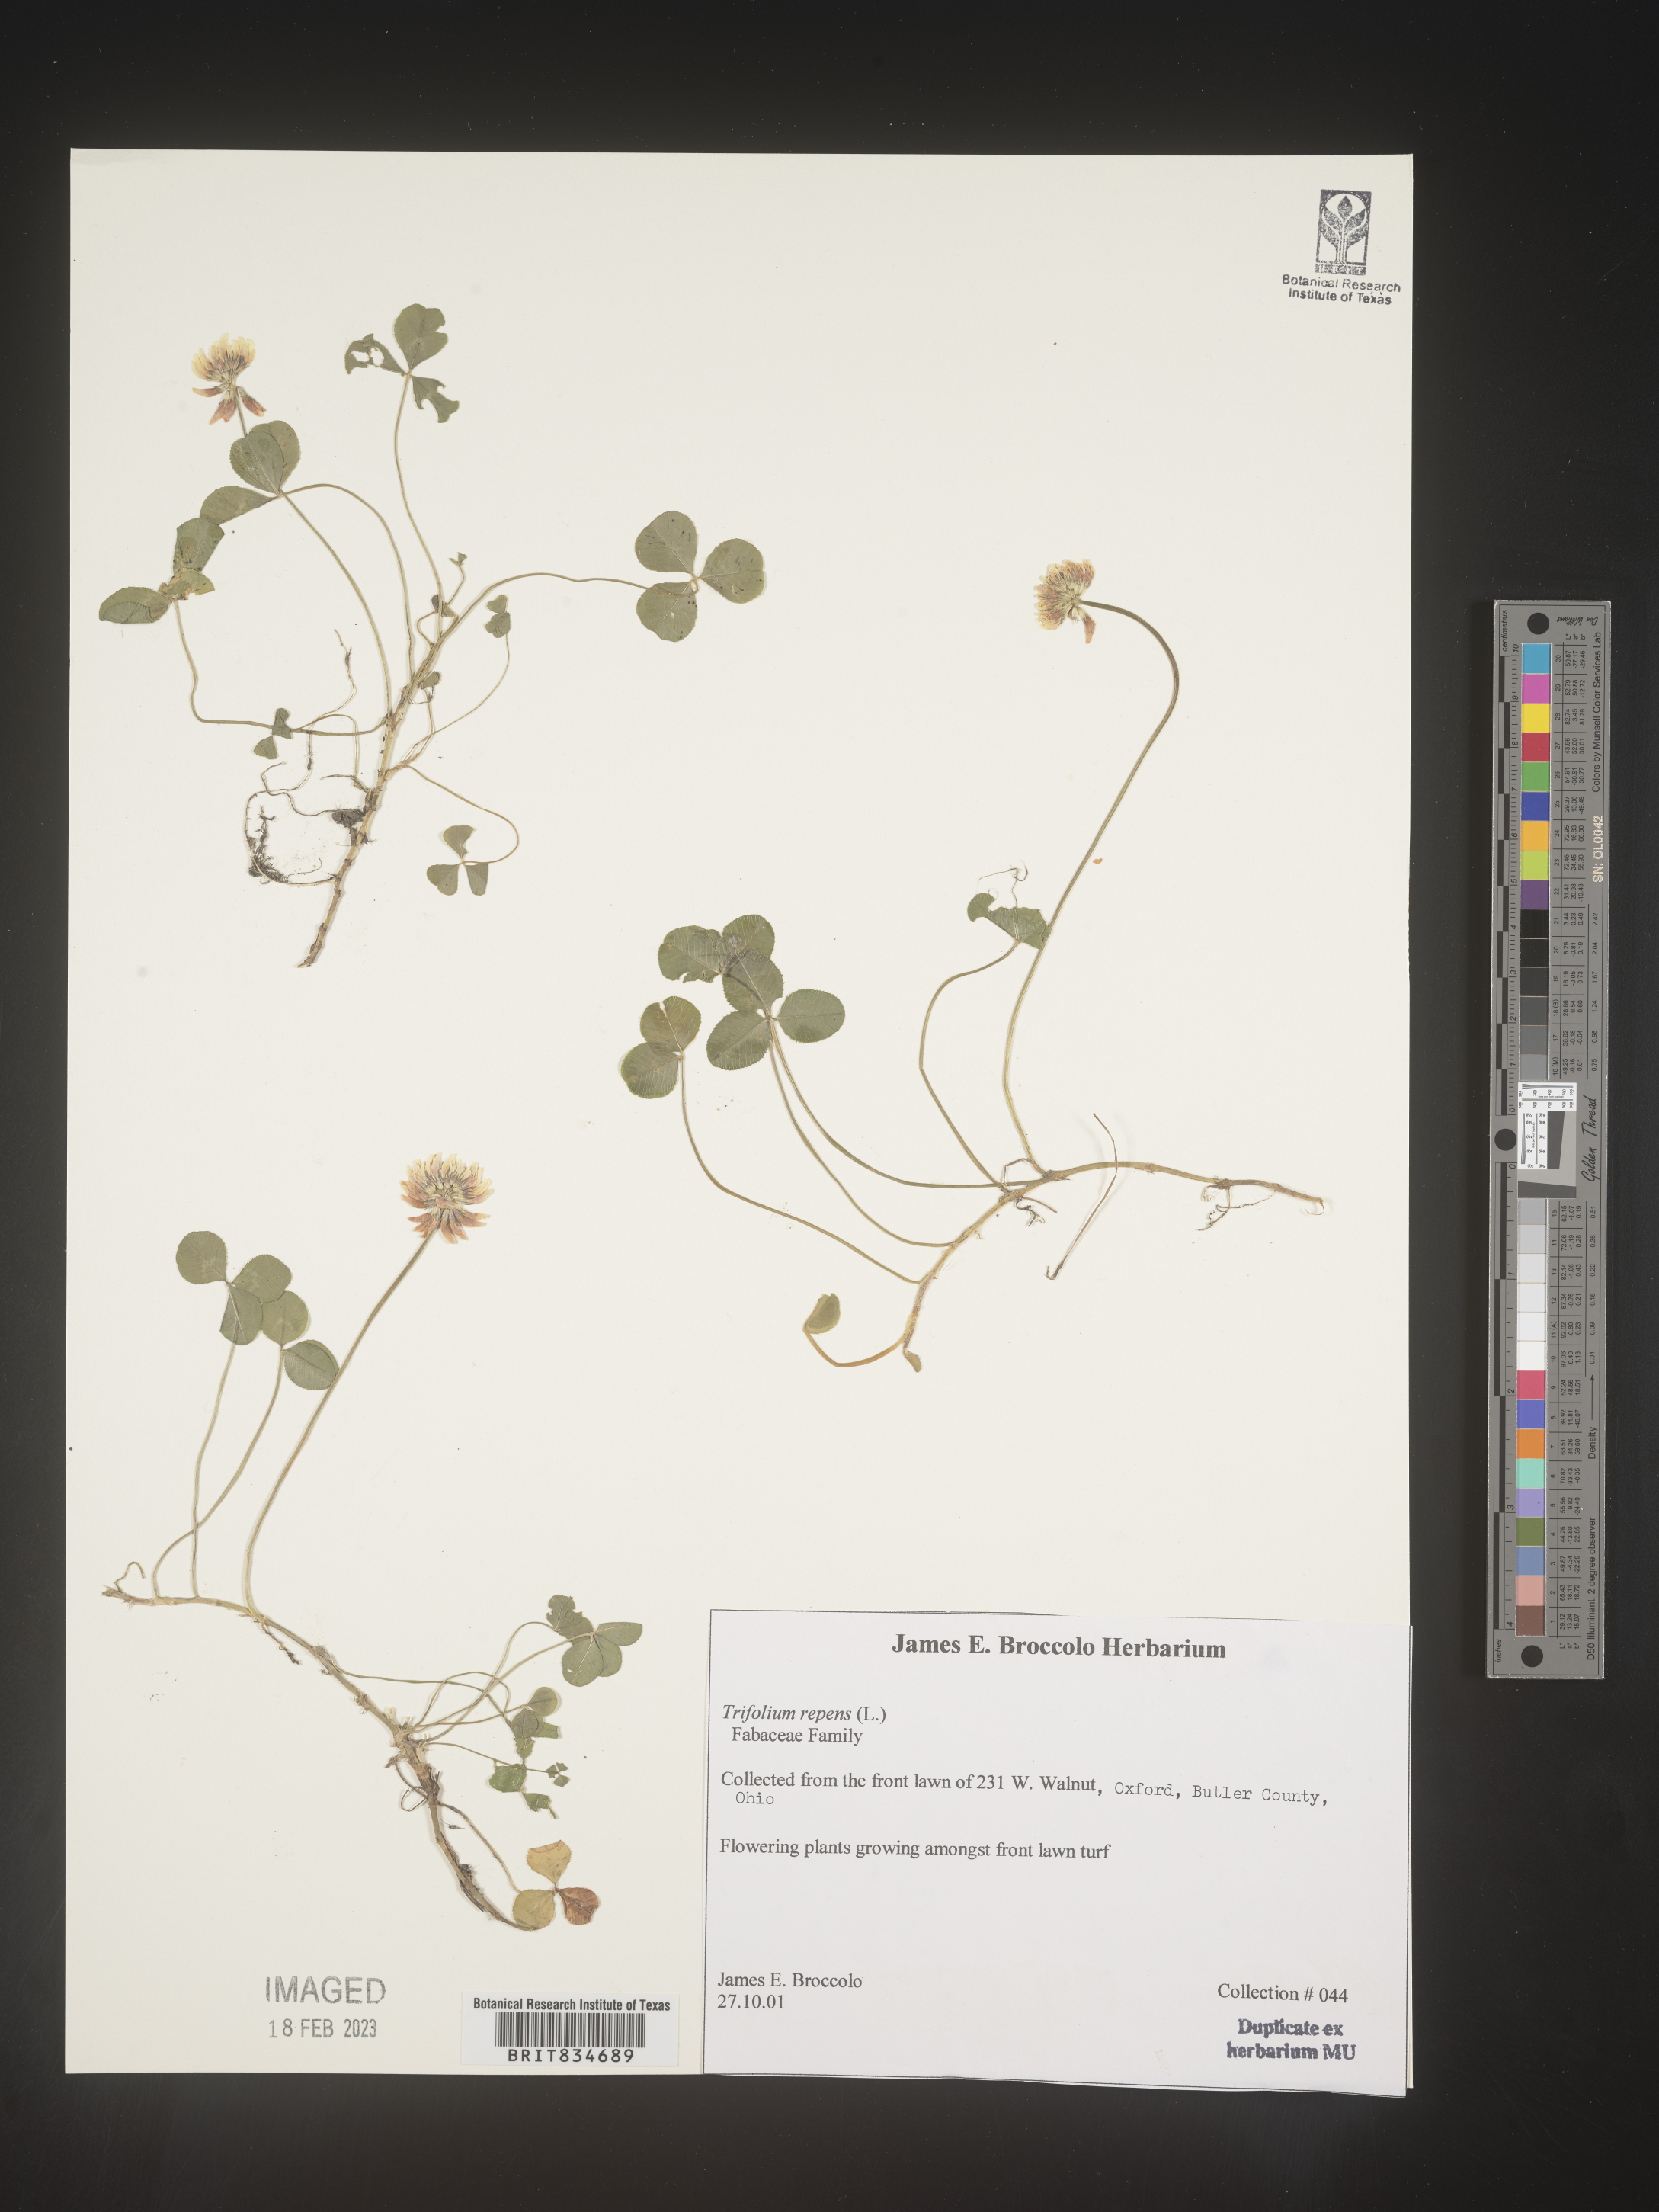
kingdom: Plantae
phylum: Tracheophyta
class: Magnoliopsida
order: Fabales
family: Fabaceae
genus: Trifolium
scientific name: Trifolium repens
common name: White clover
